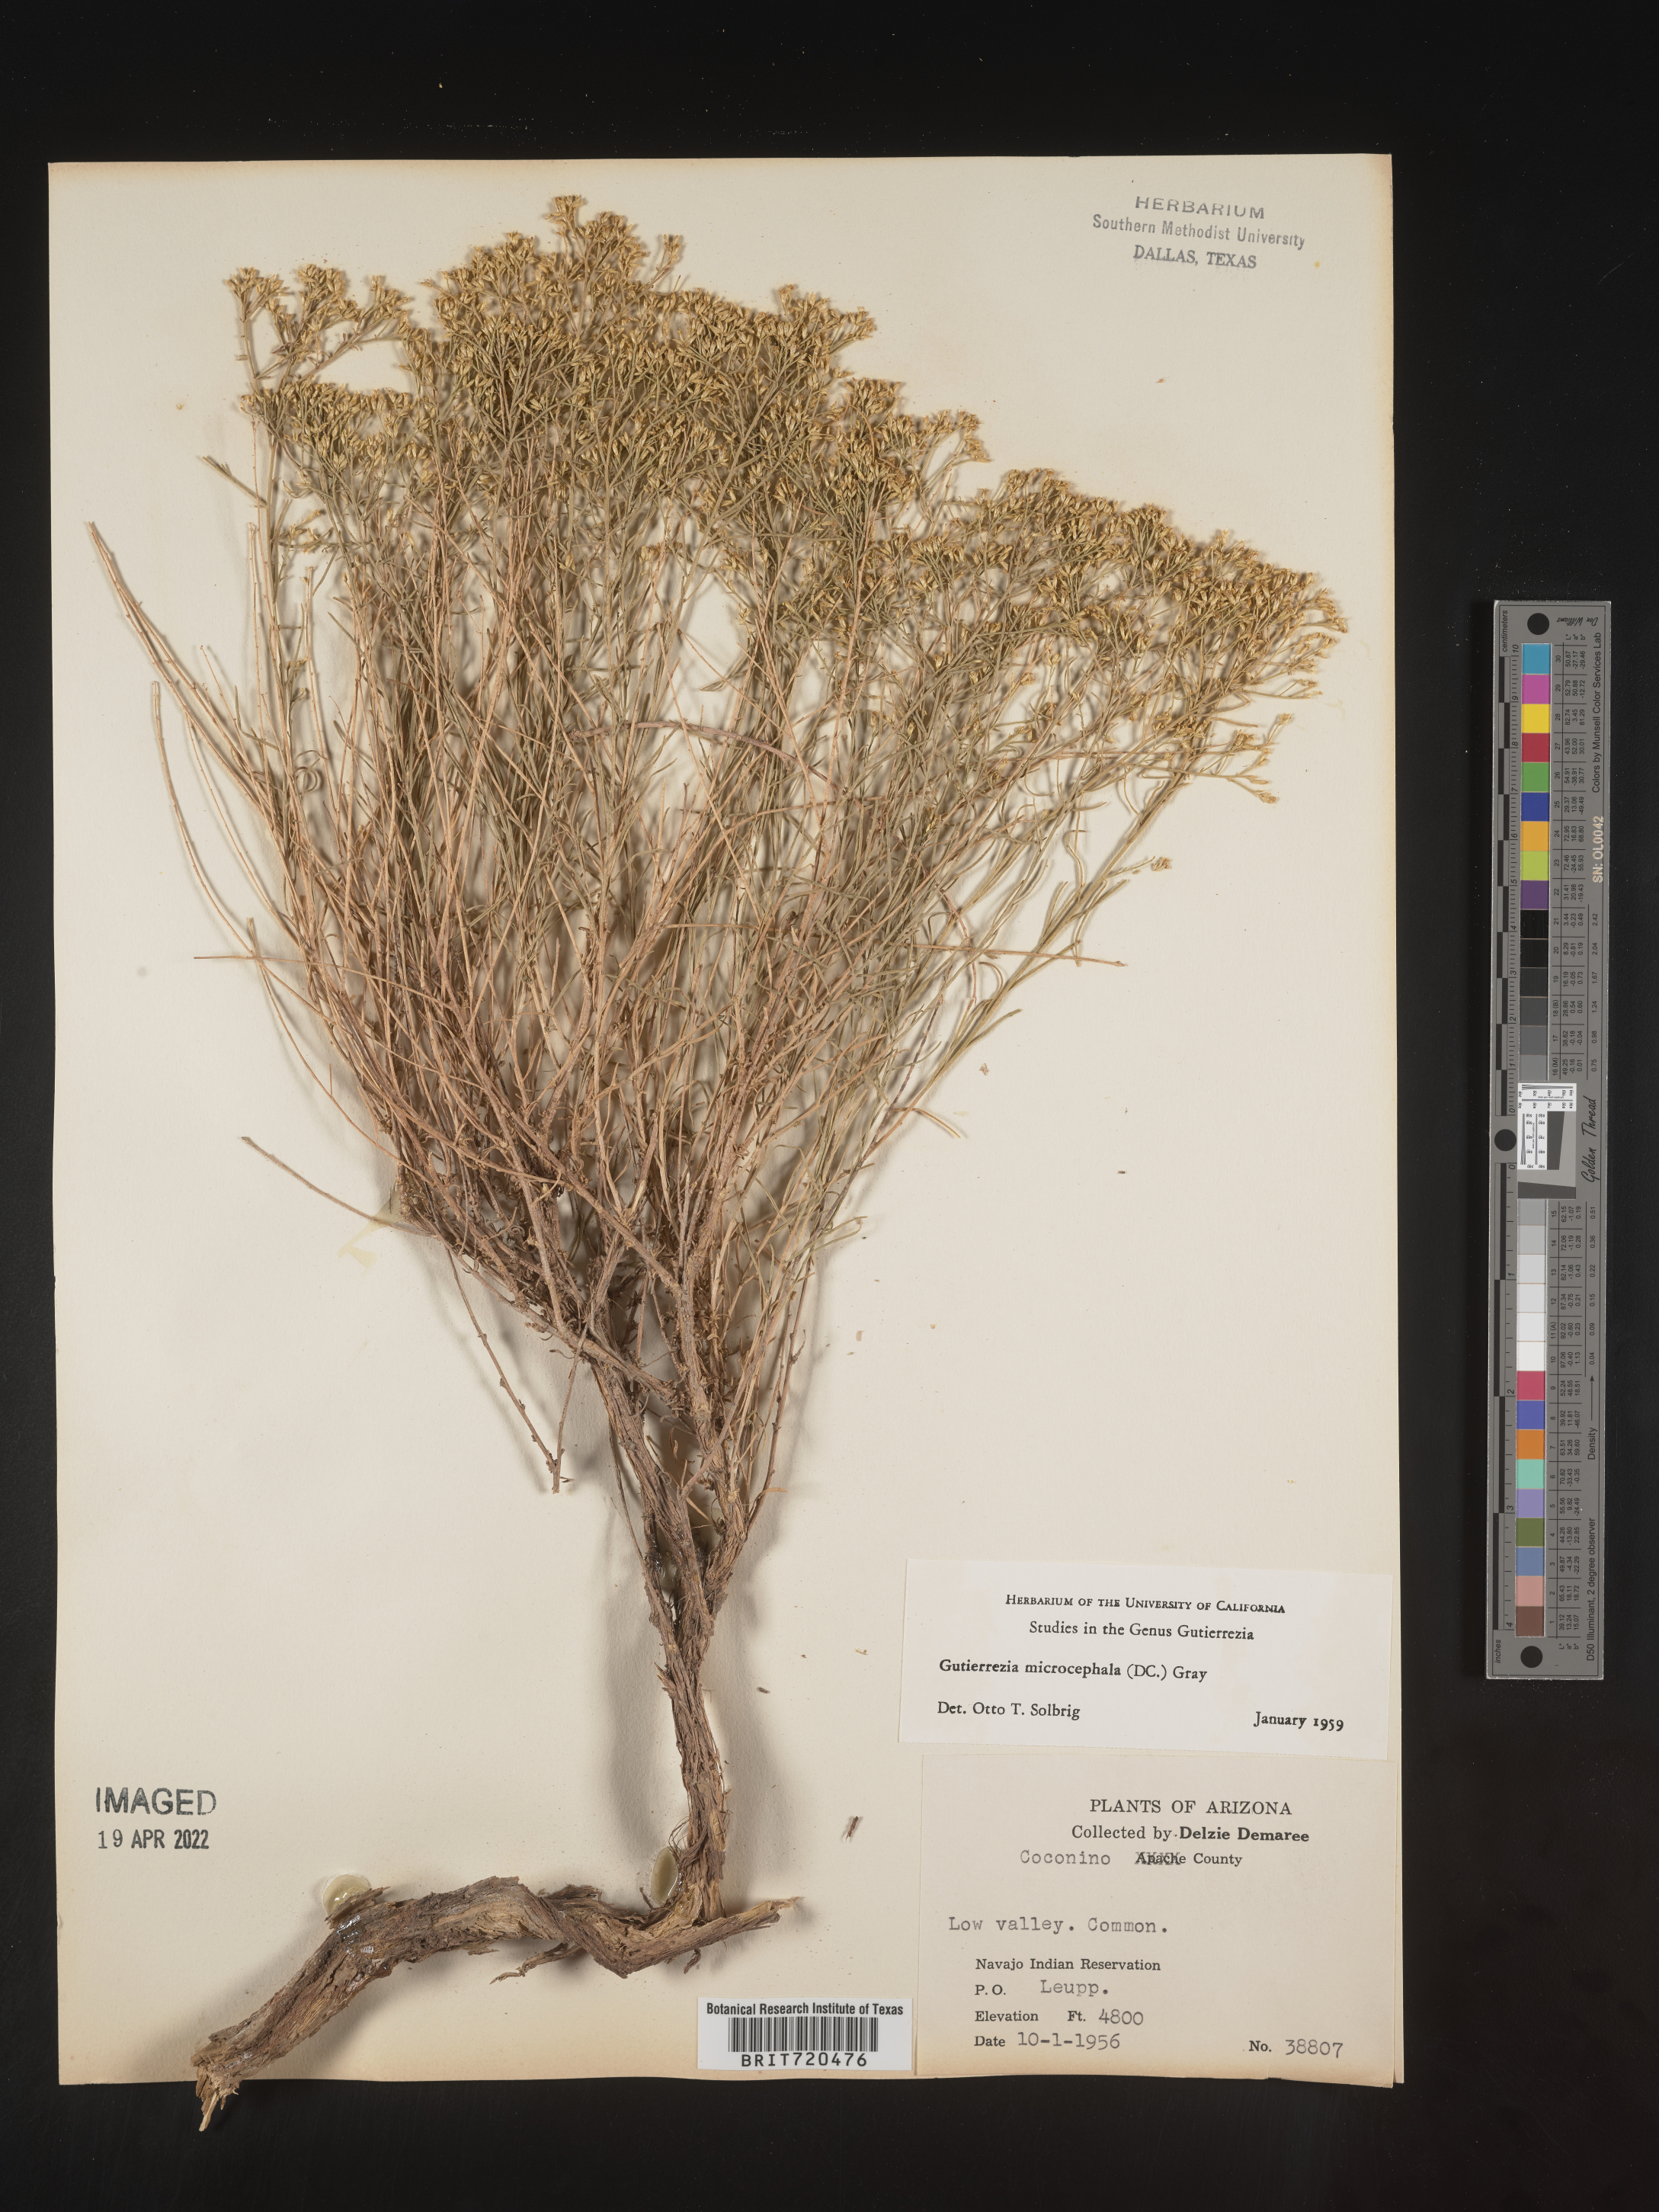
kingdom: Plantae
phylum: Tracheophyta
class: Magnoliopsida
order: Asterales
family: Asteraceae
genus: Gutierrezia
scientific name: Gutierrezia microcephala
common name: Thread snakeweed
